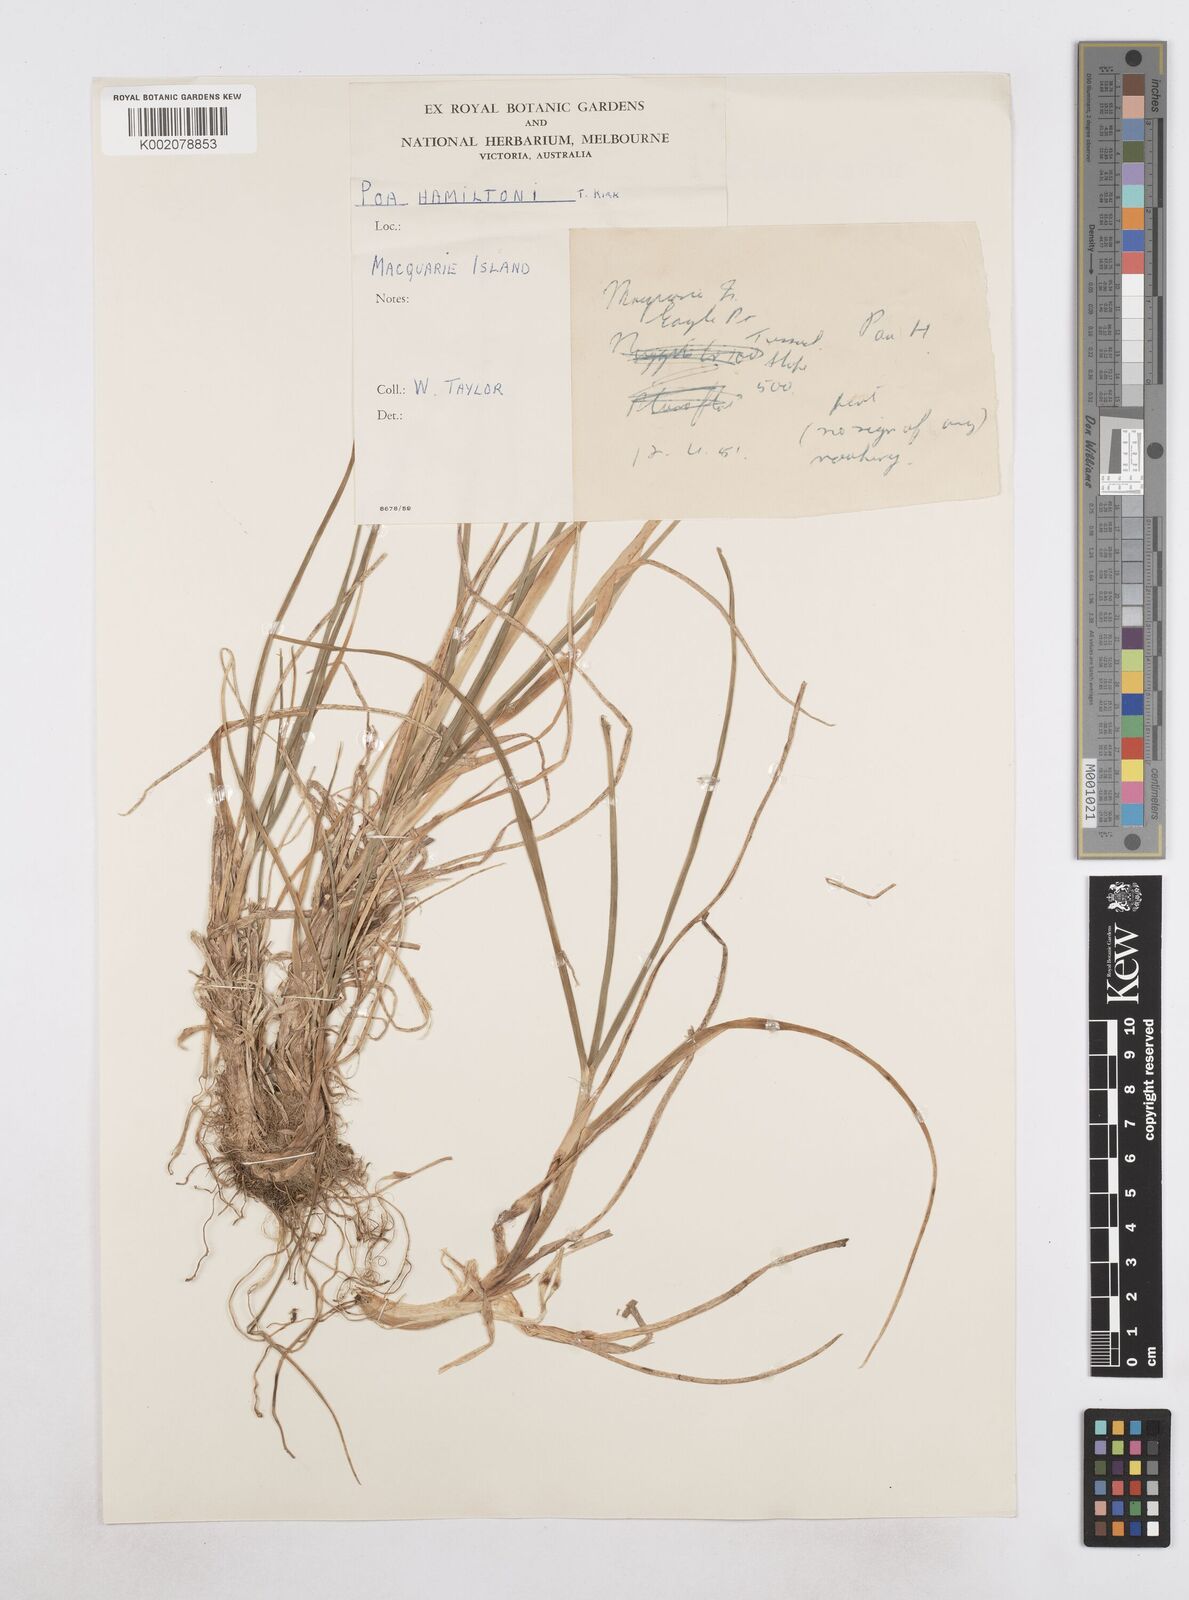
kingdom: Plantae
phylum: Tracheophyta
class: Liliopsida
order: Poales
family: Poaceae
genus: Poa
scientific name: Poa cookii
